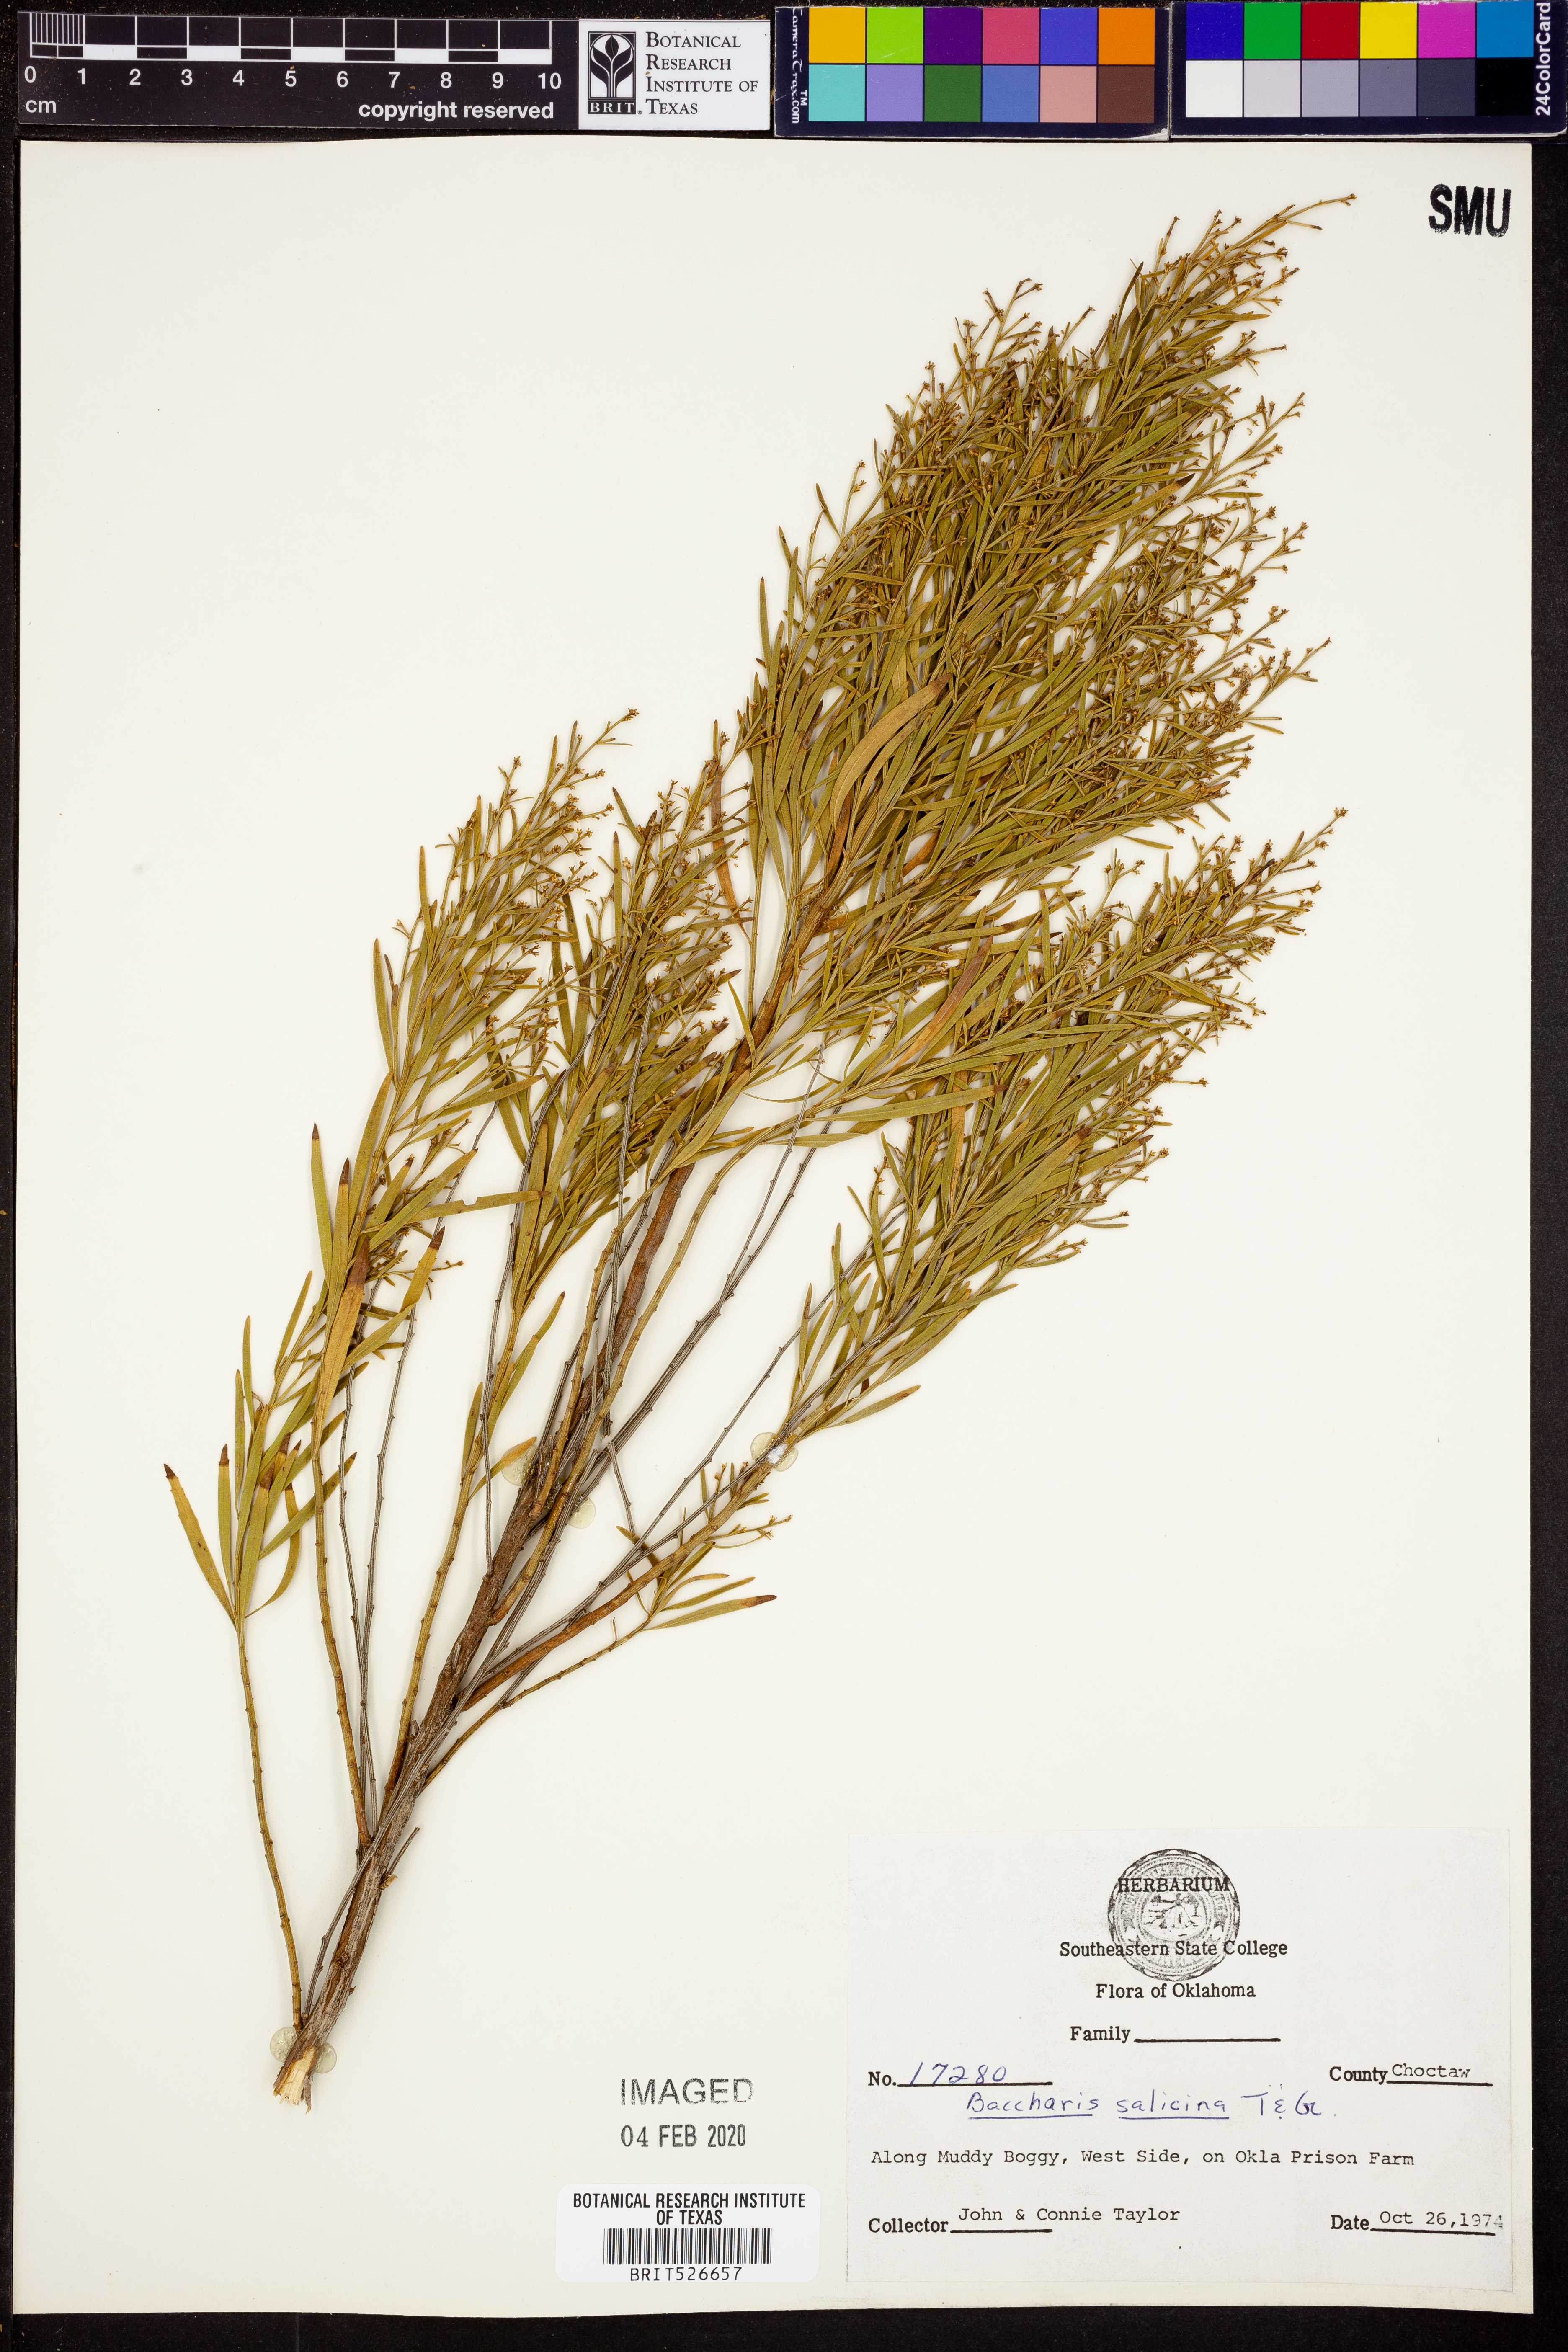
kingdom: Plantae
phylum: Tracheophyta
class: Magnoliopsida
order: Asterales
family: Asteraceae
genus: Baccharis
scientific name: Baccharis salicina
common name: Willow baccharis
